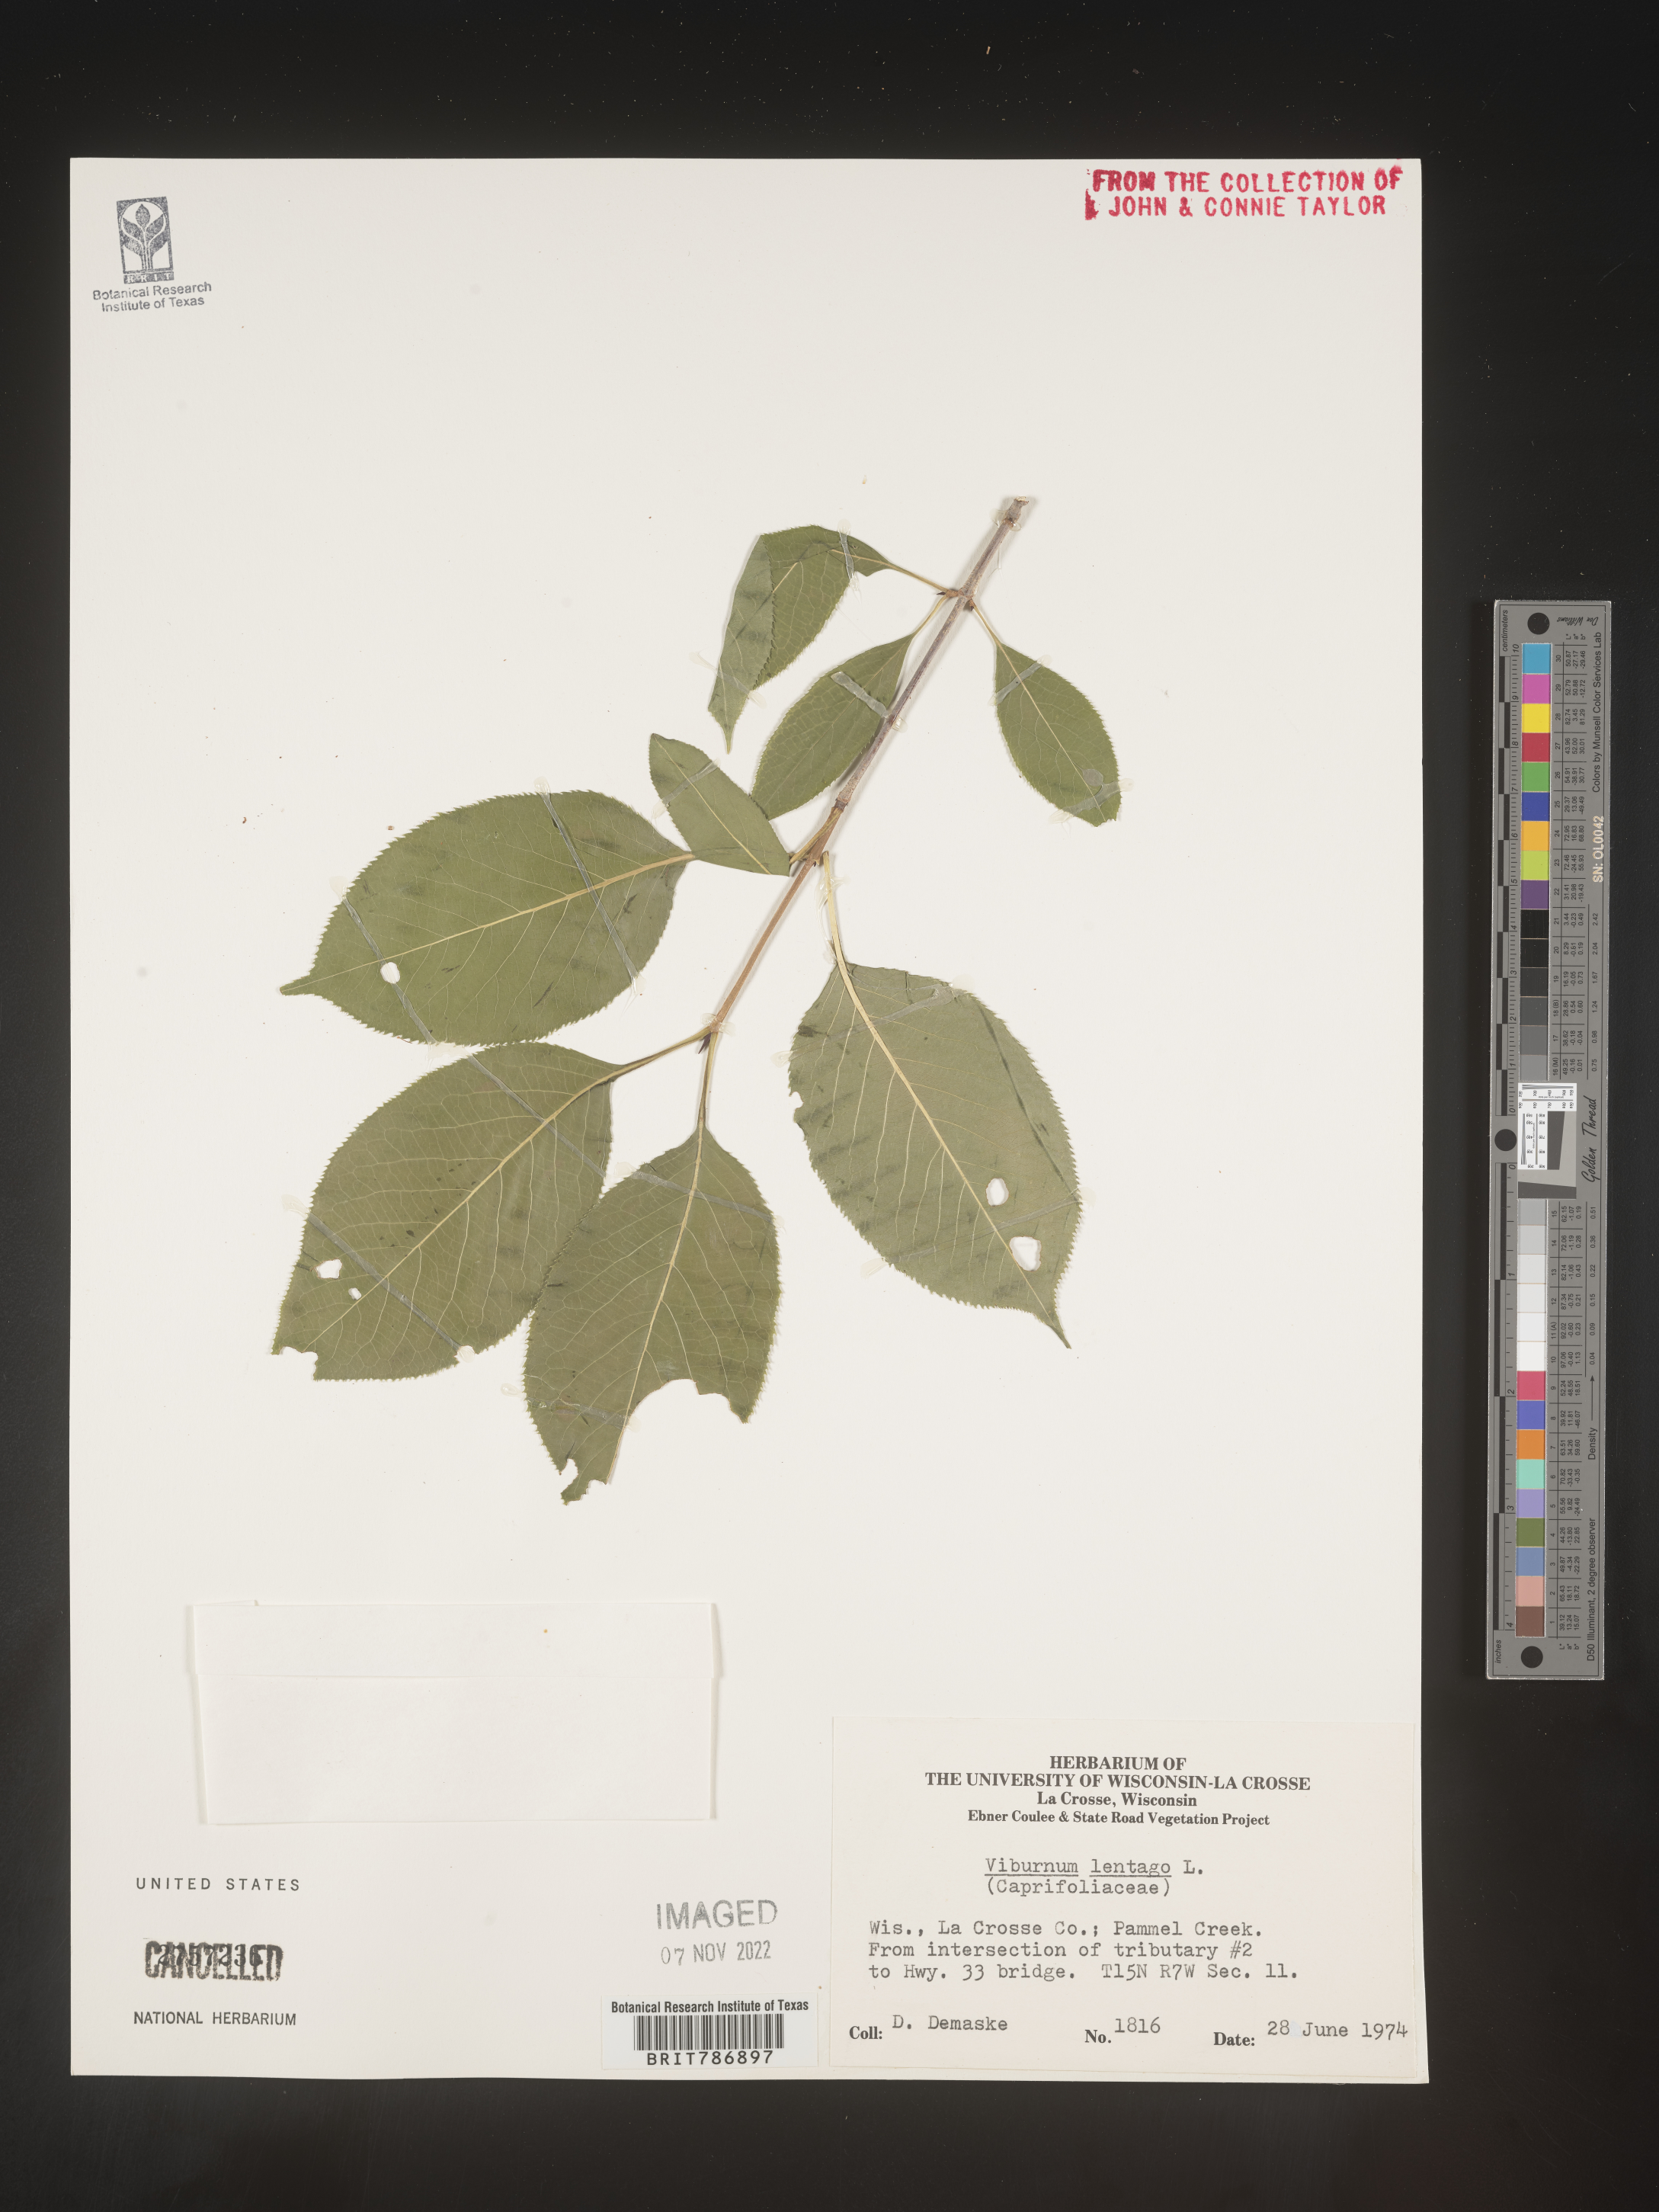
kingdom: Plantae
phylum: Tracheophyta
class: Magnoliopsida
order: Dipsacales
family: Viburnaceae
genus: Viburnum
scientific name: Viburnum lentago
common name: Black haw
